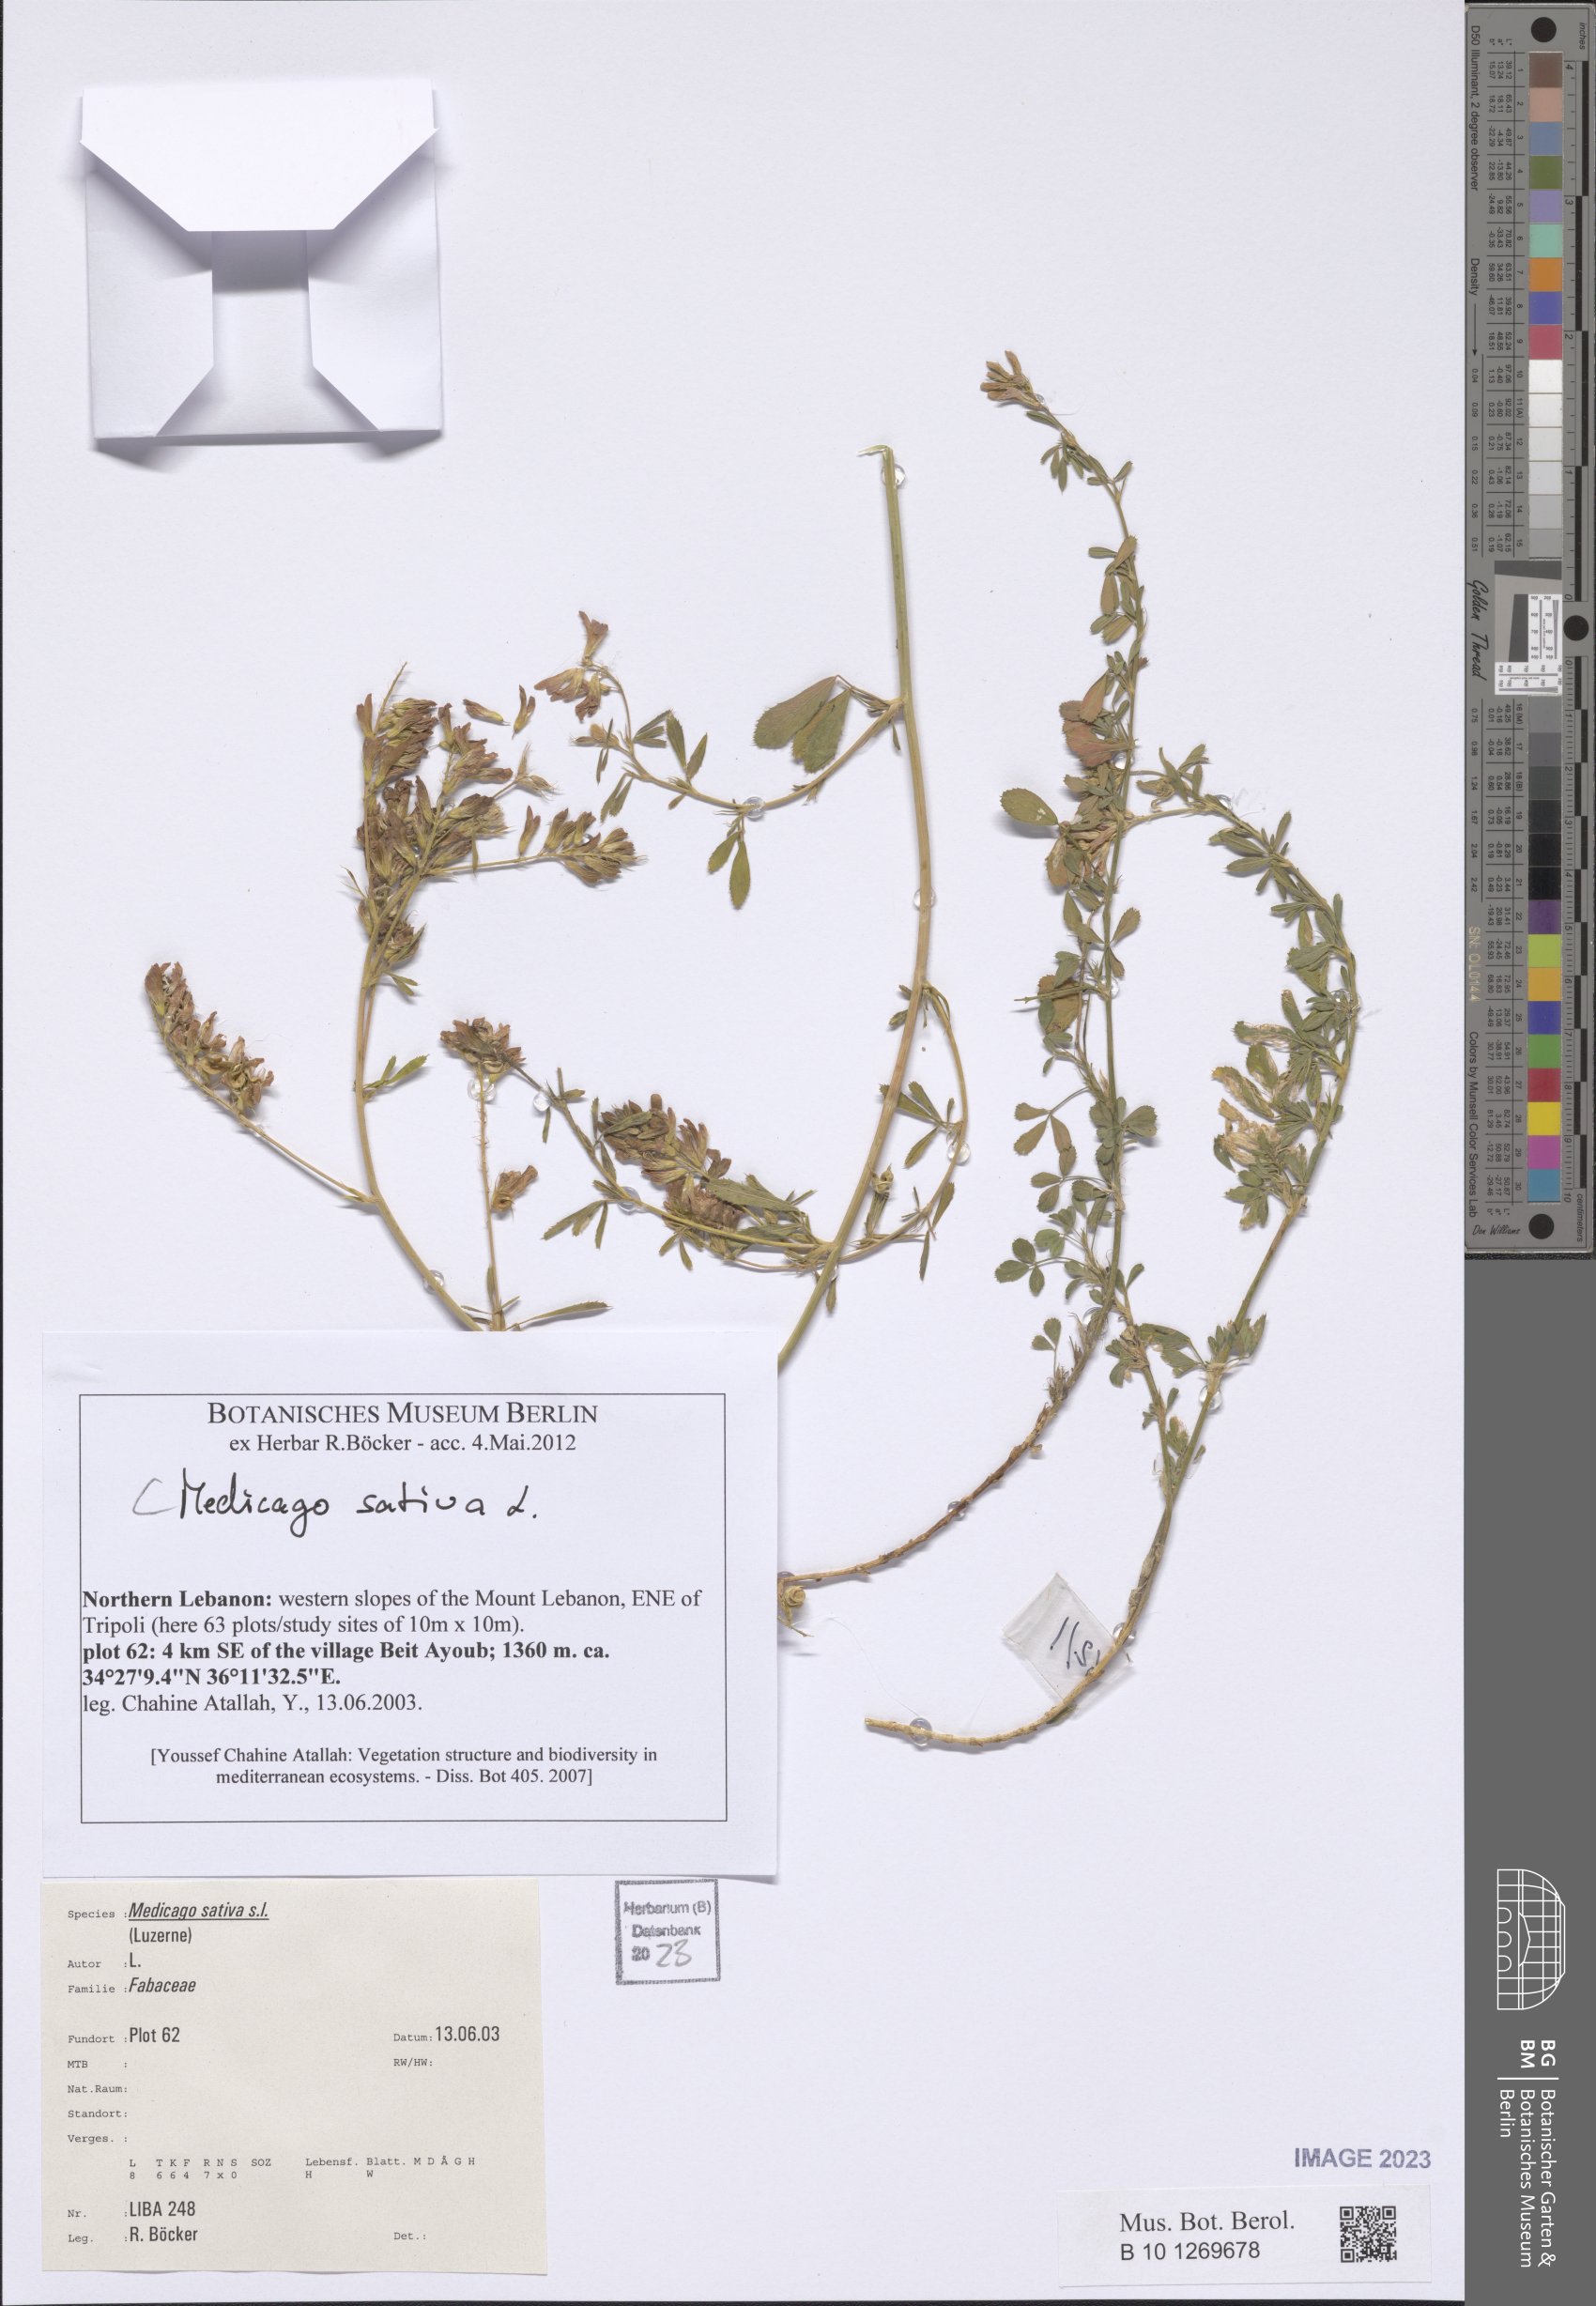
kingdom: Plantae
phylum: Tracheophyta
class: Magnoliopsida
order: Fabales
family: Fabaceae
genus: Medicago
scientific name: Medicago sativa
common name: Alfalfa
